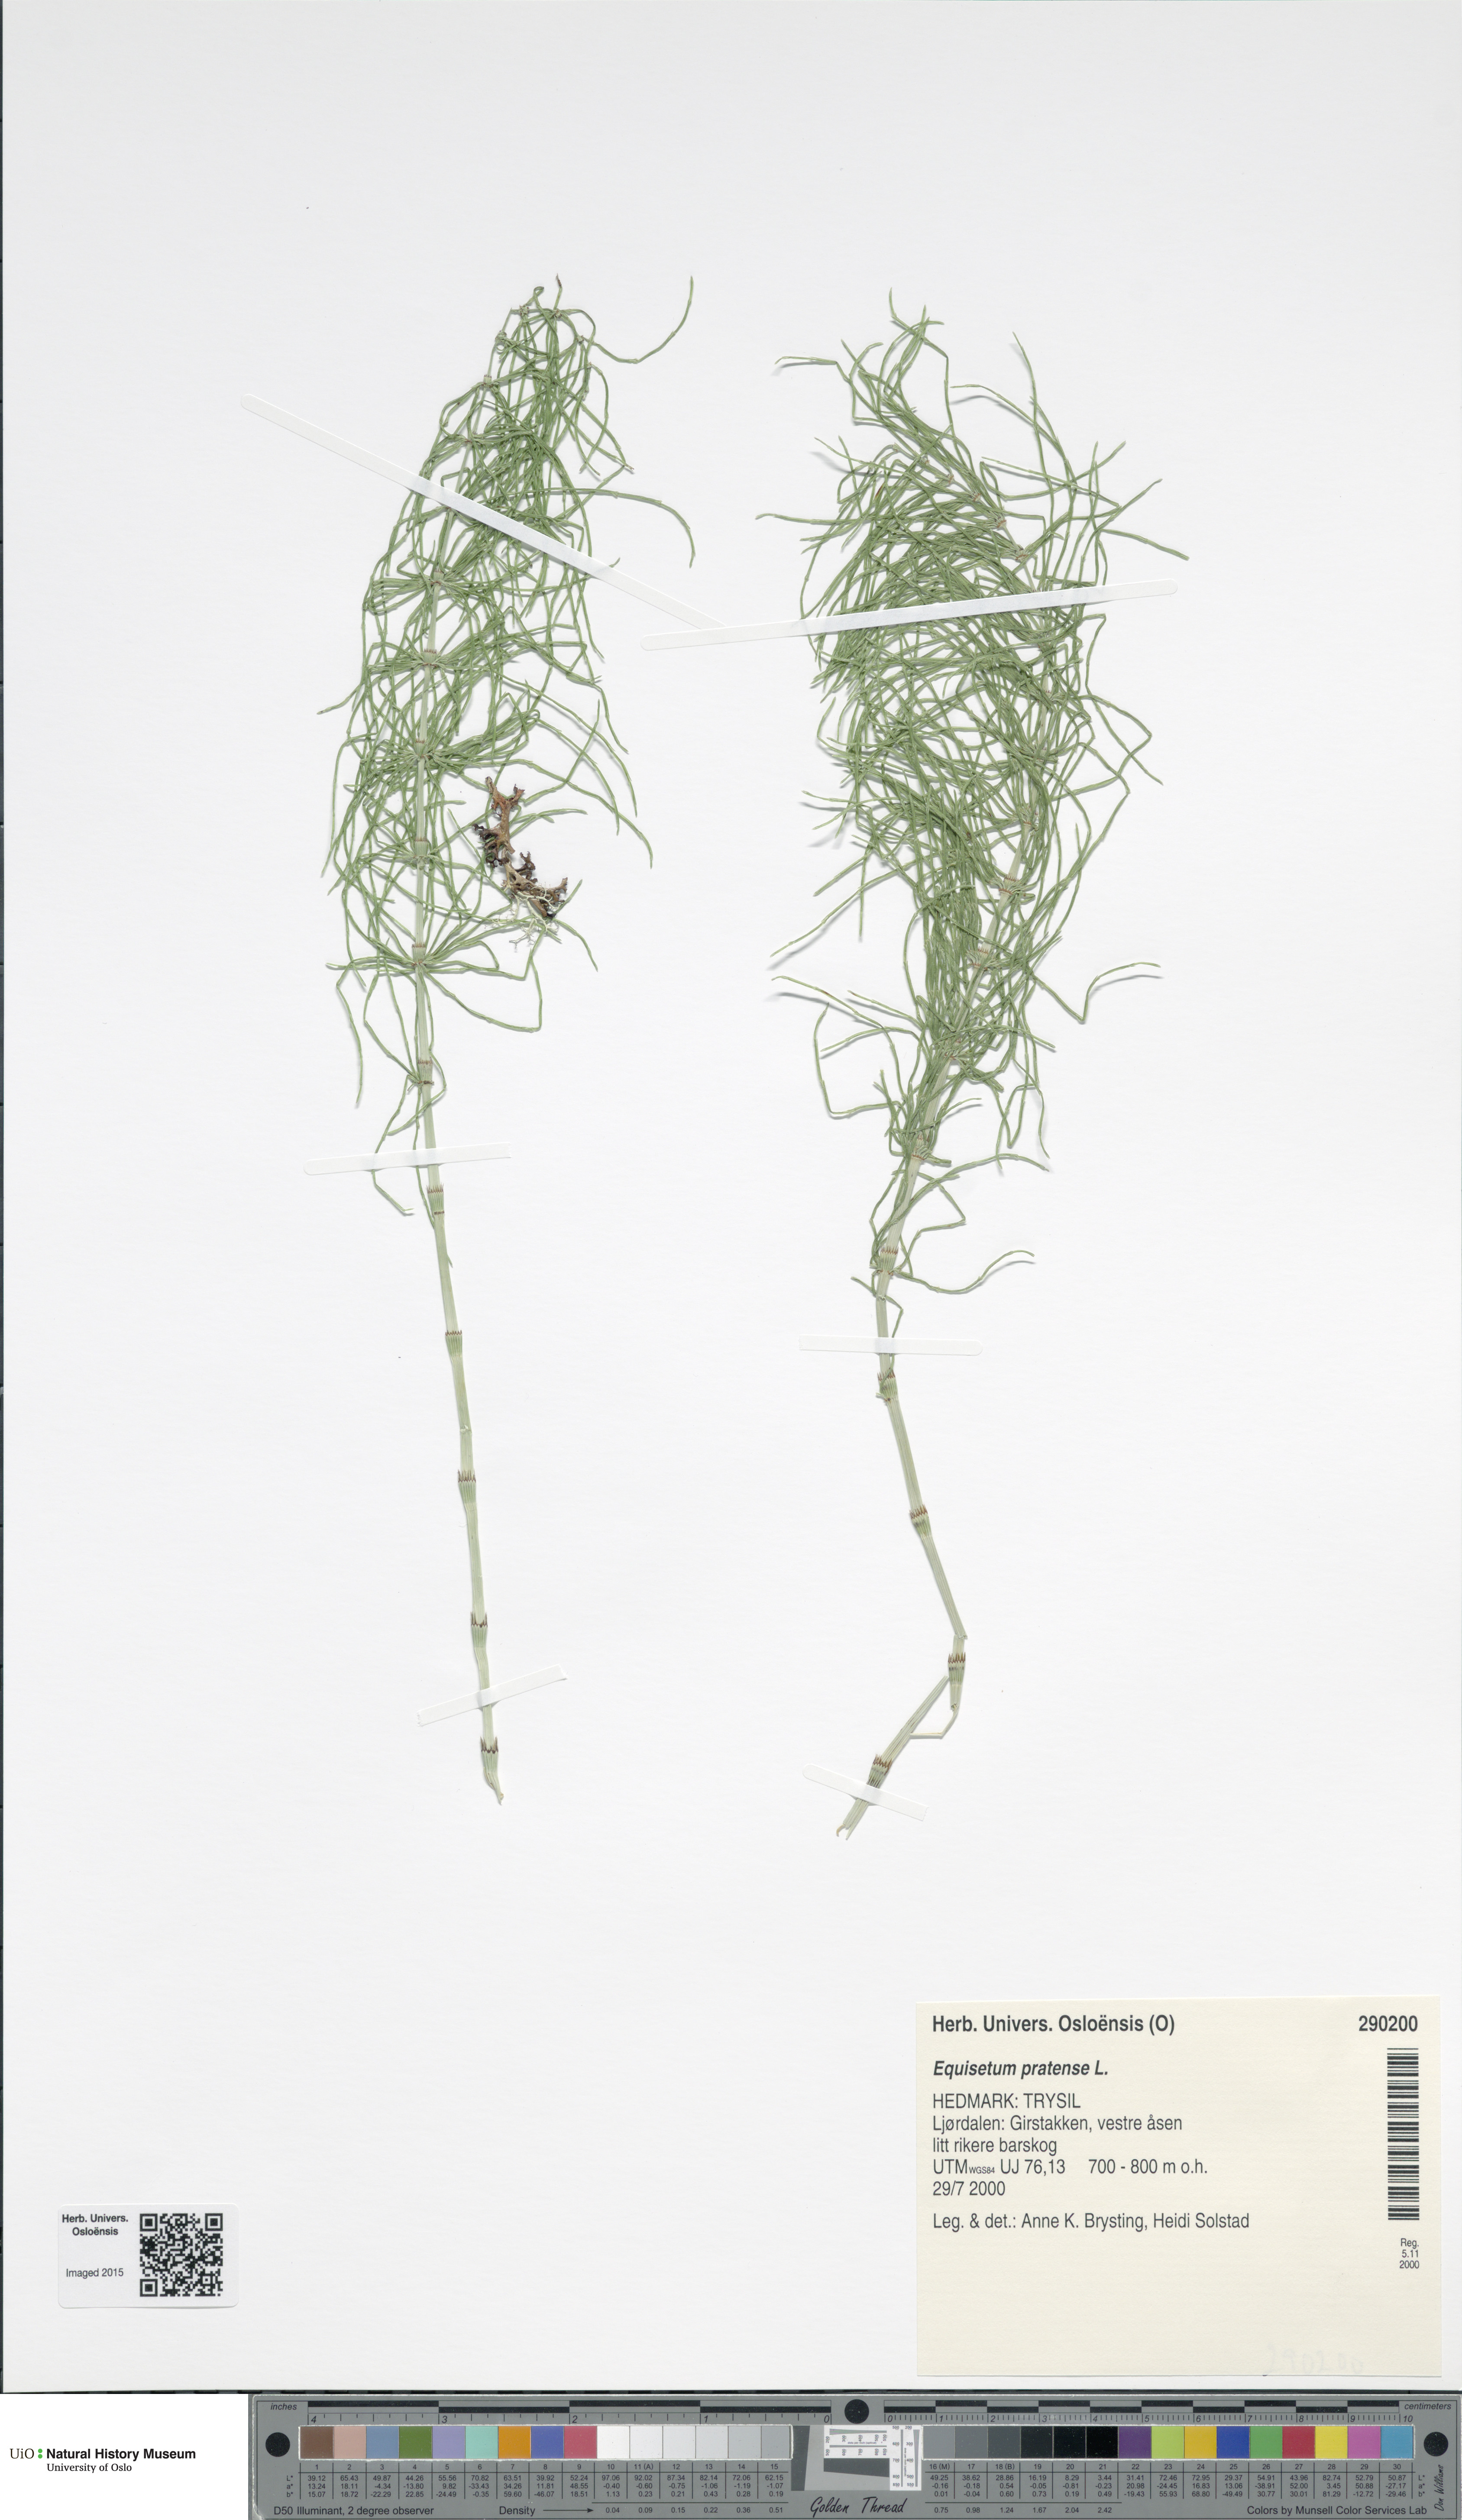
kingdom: Plantae
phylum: Tracheophyta
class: Polypodiopsida
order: Equisetales
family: Equisetaceae
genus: Equisetum
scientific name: Equisetum pratense
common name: Meadow horsetail
